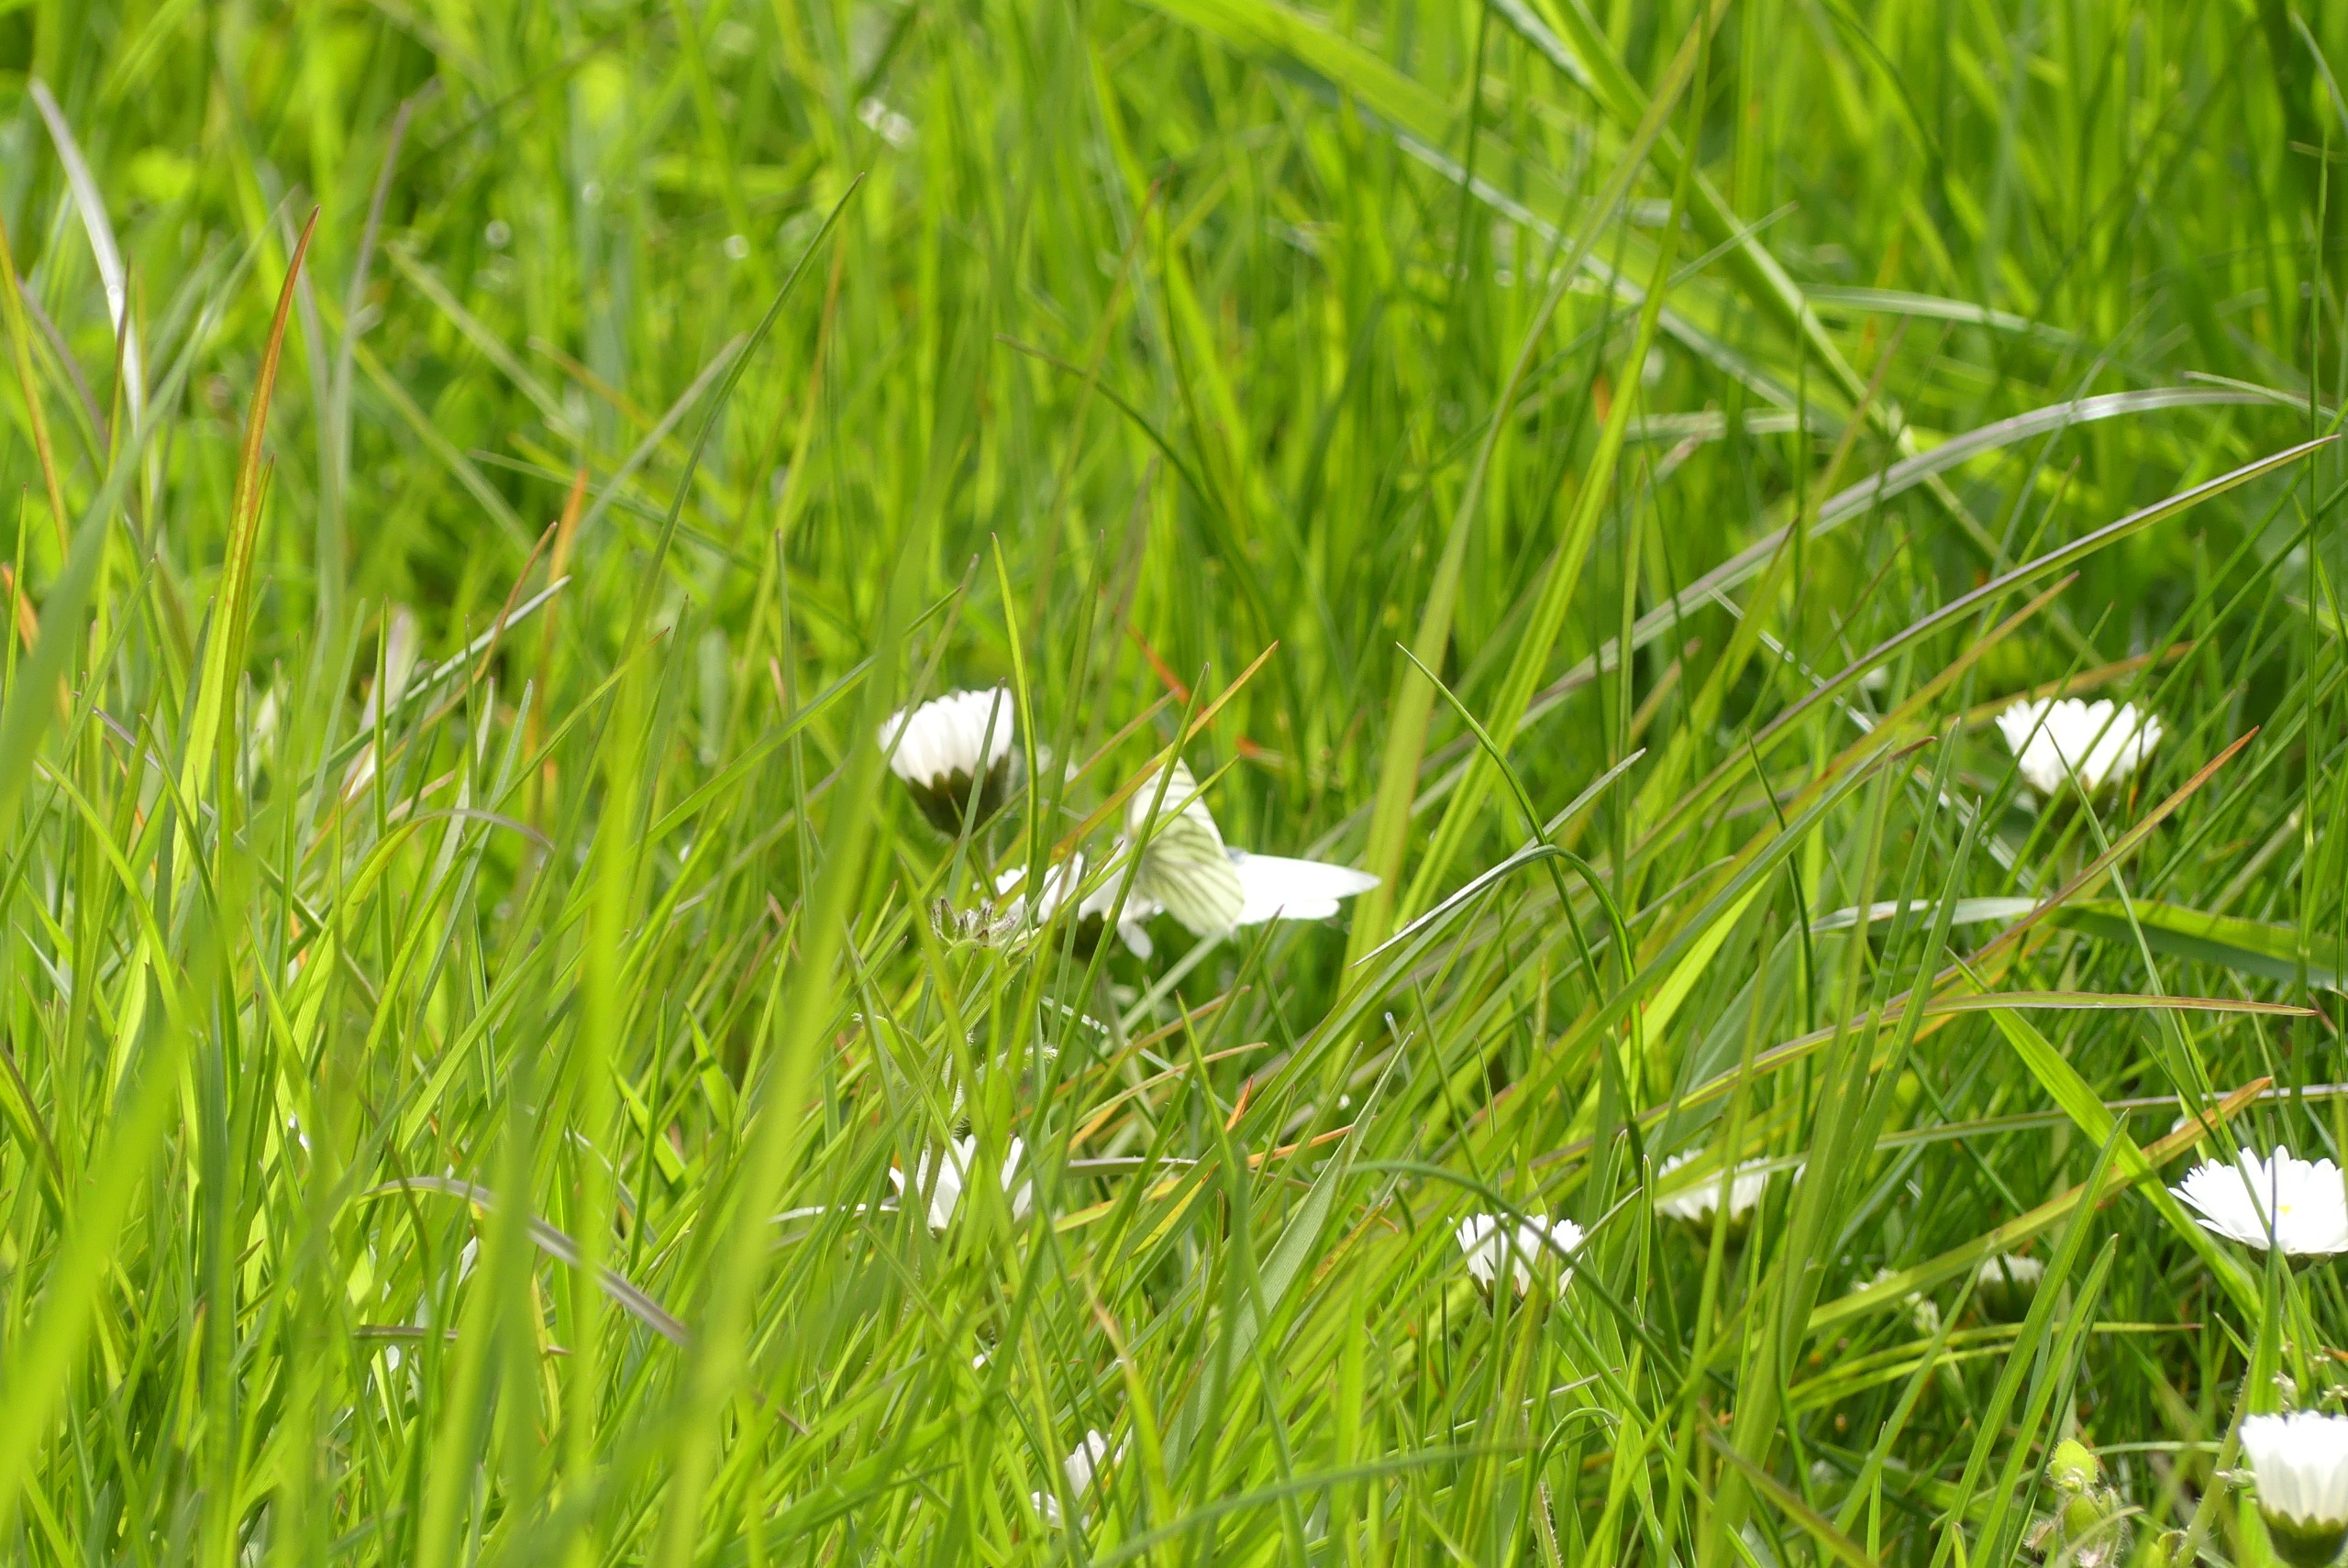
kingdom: Animalia
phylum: Arthropoda
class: Insecta
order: Lepidoptera
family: Pieridae
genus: Pieris
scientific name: Pieris napi
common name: Grønåret kålsommerfugl
